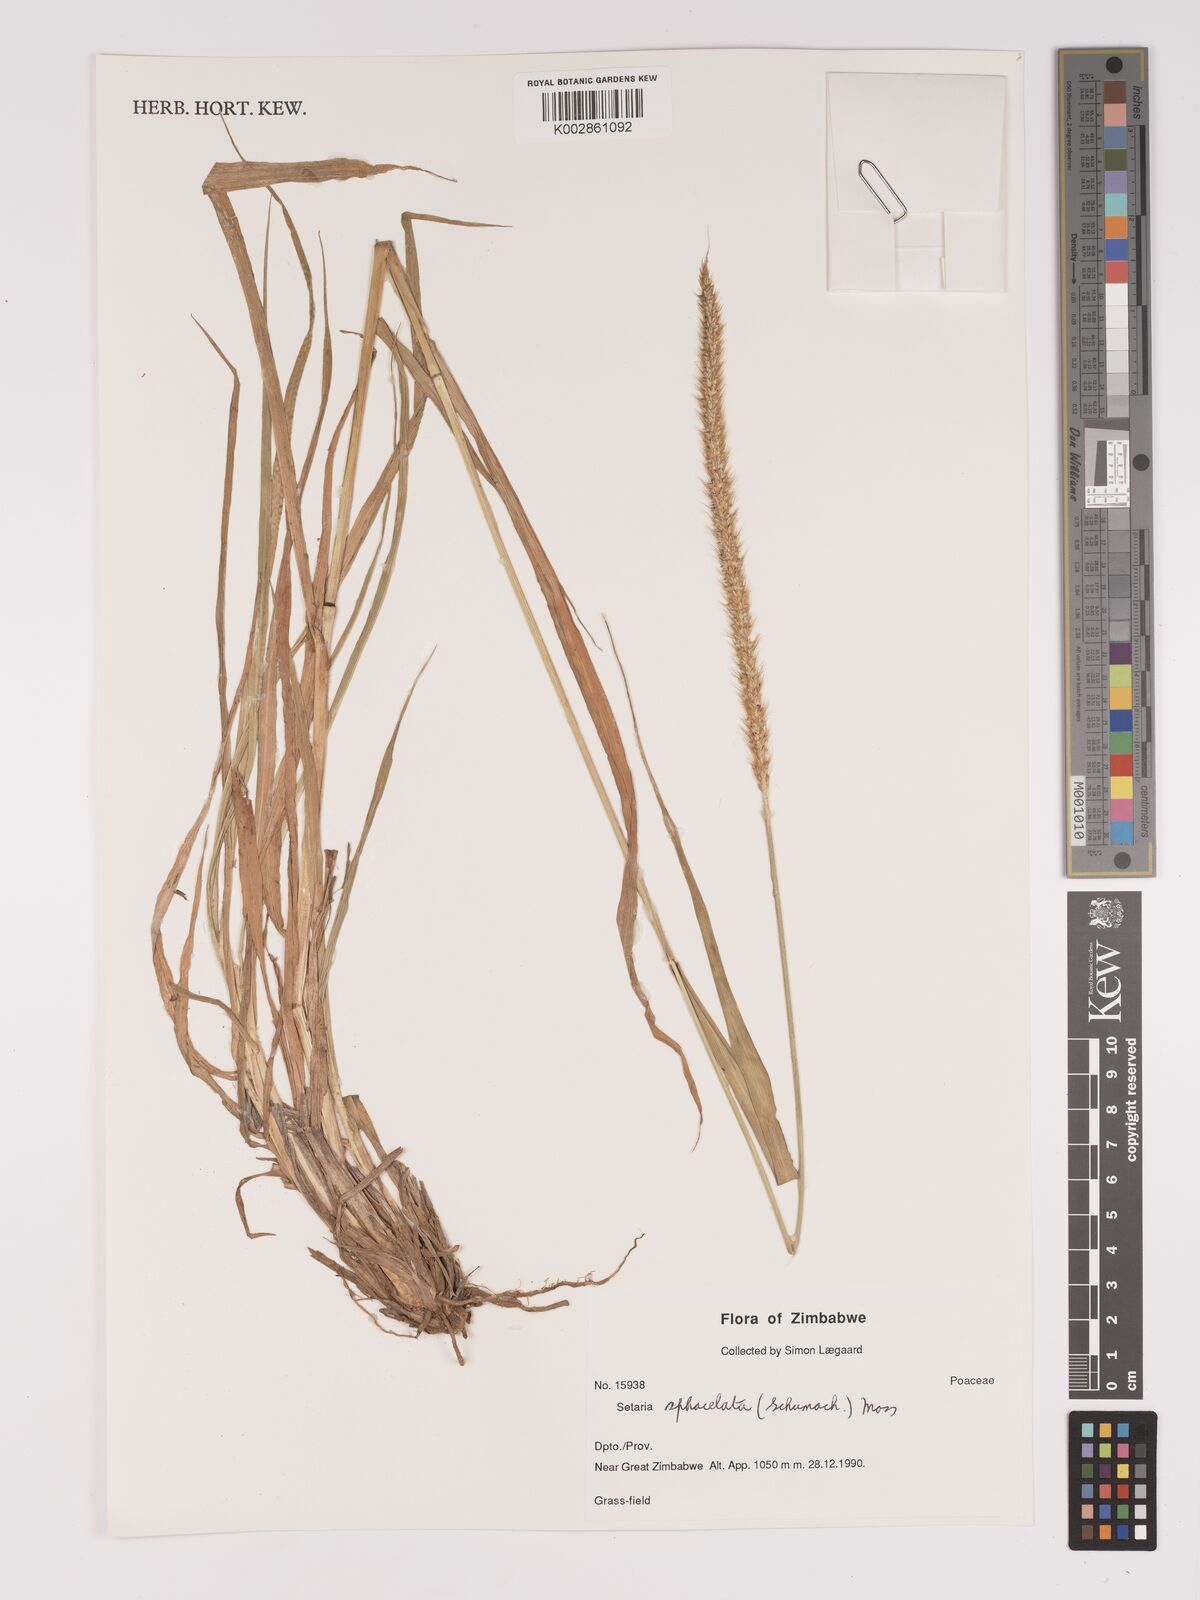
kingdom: Plantae
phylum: Tracheophyta
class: Liliopsida
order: Poales
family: Poaceae
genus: Setaria
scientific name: Setaria sphacelata
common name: African bristlegrass
